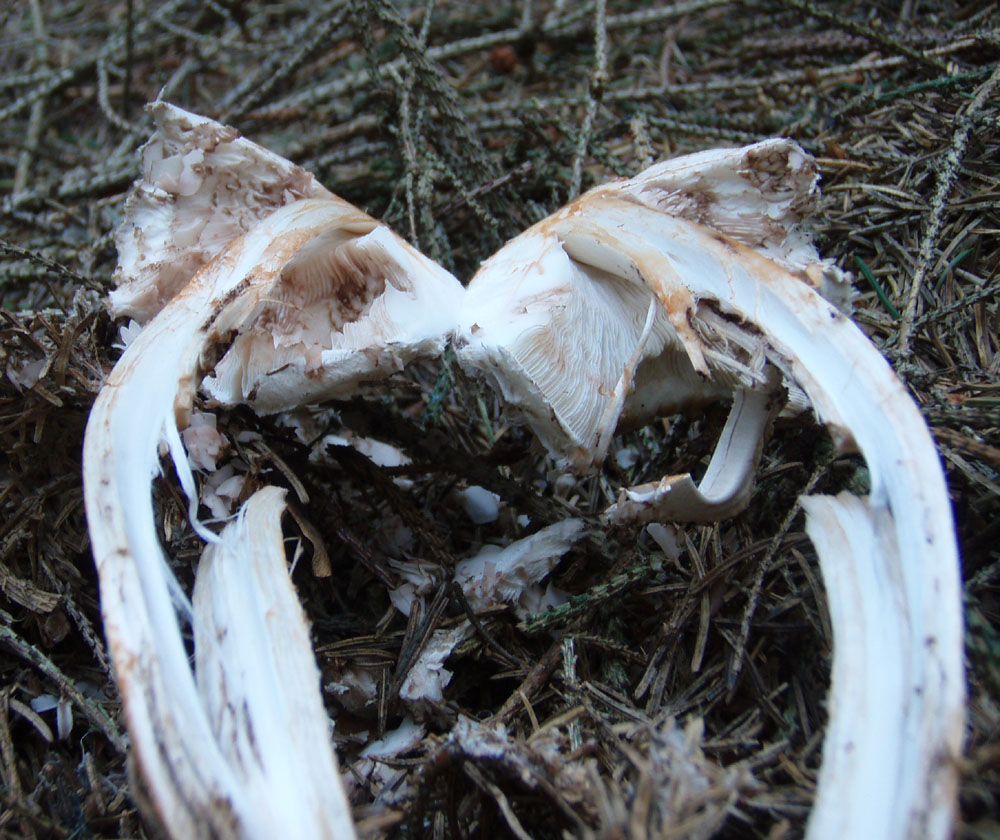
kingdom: Fungi
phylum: Basidiomycota
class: Agaricomycetes
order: Agaricales
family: Agaricaceae
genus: Chlorophyllum
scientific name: Chlorophyllum rhacodes
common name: ægte rabarberhat
